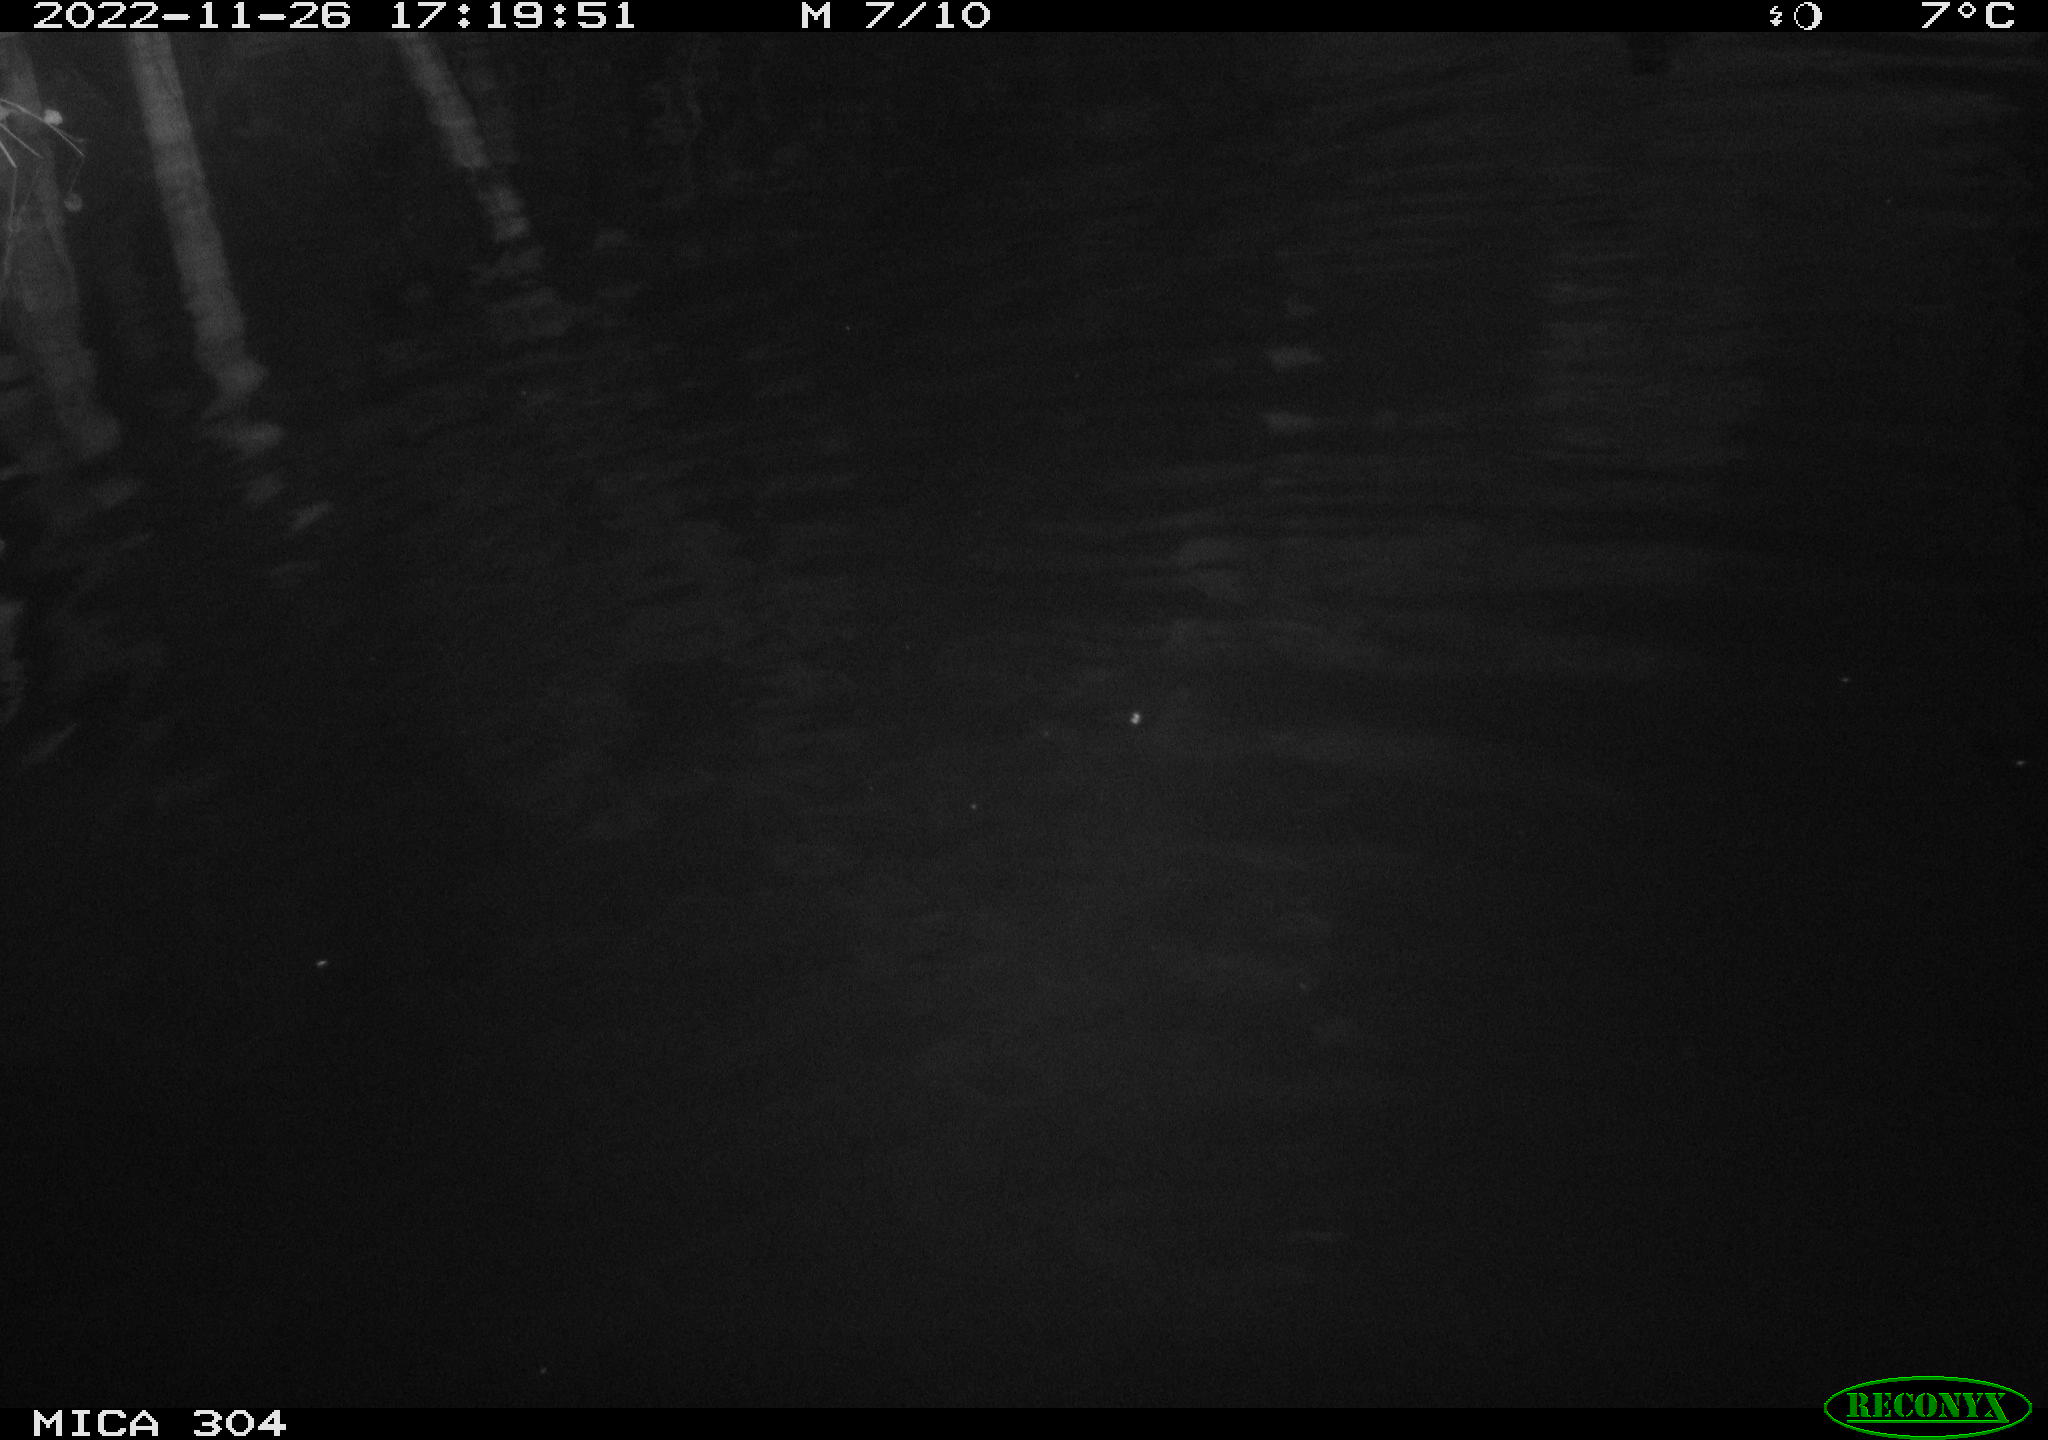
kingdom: Animalia
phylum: Chordata
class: Aves
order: Anseriformes
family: Anatidae
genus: Anas
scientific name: Anas
